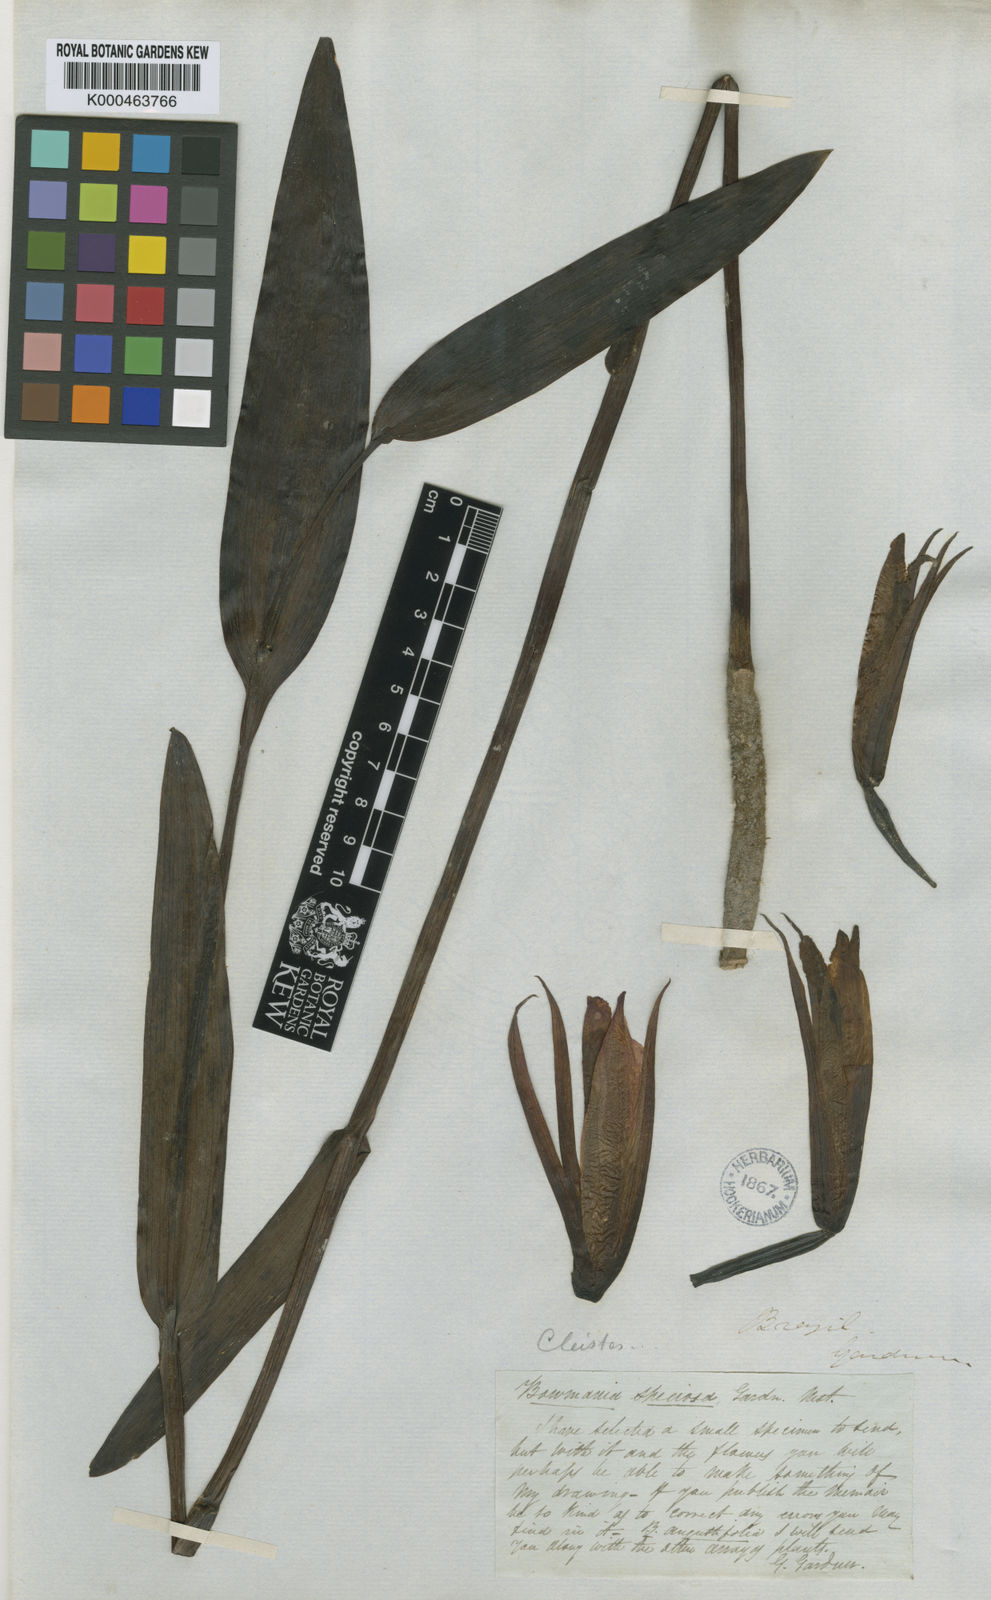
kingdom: Plantae
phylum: Tracheophyta
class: Liliopsida
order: Asparagales
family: Orchidaceae
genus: Cleistes
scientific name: Cleistes speciosa
